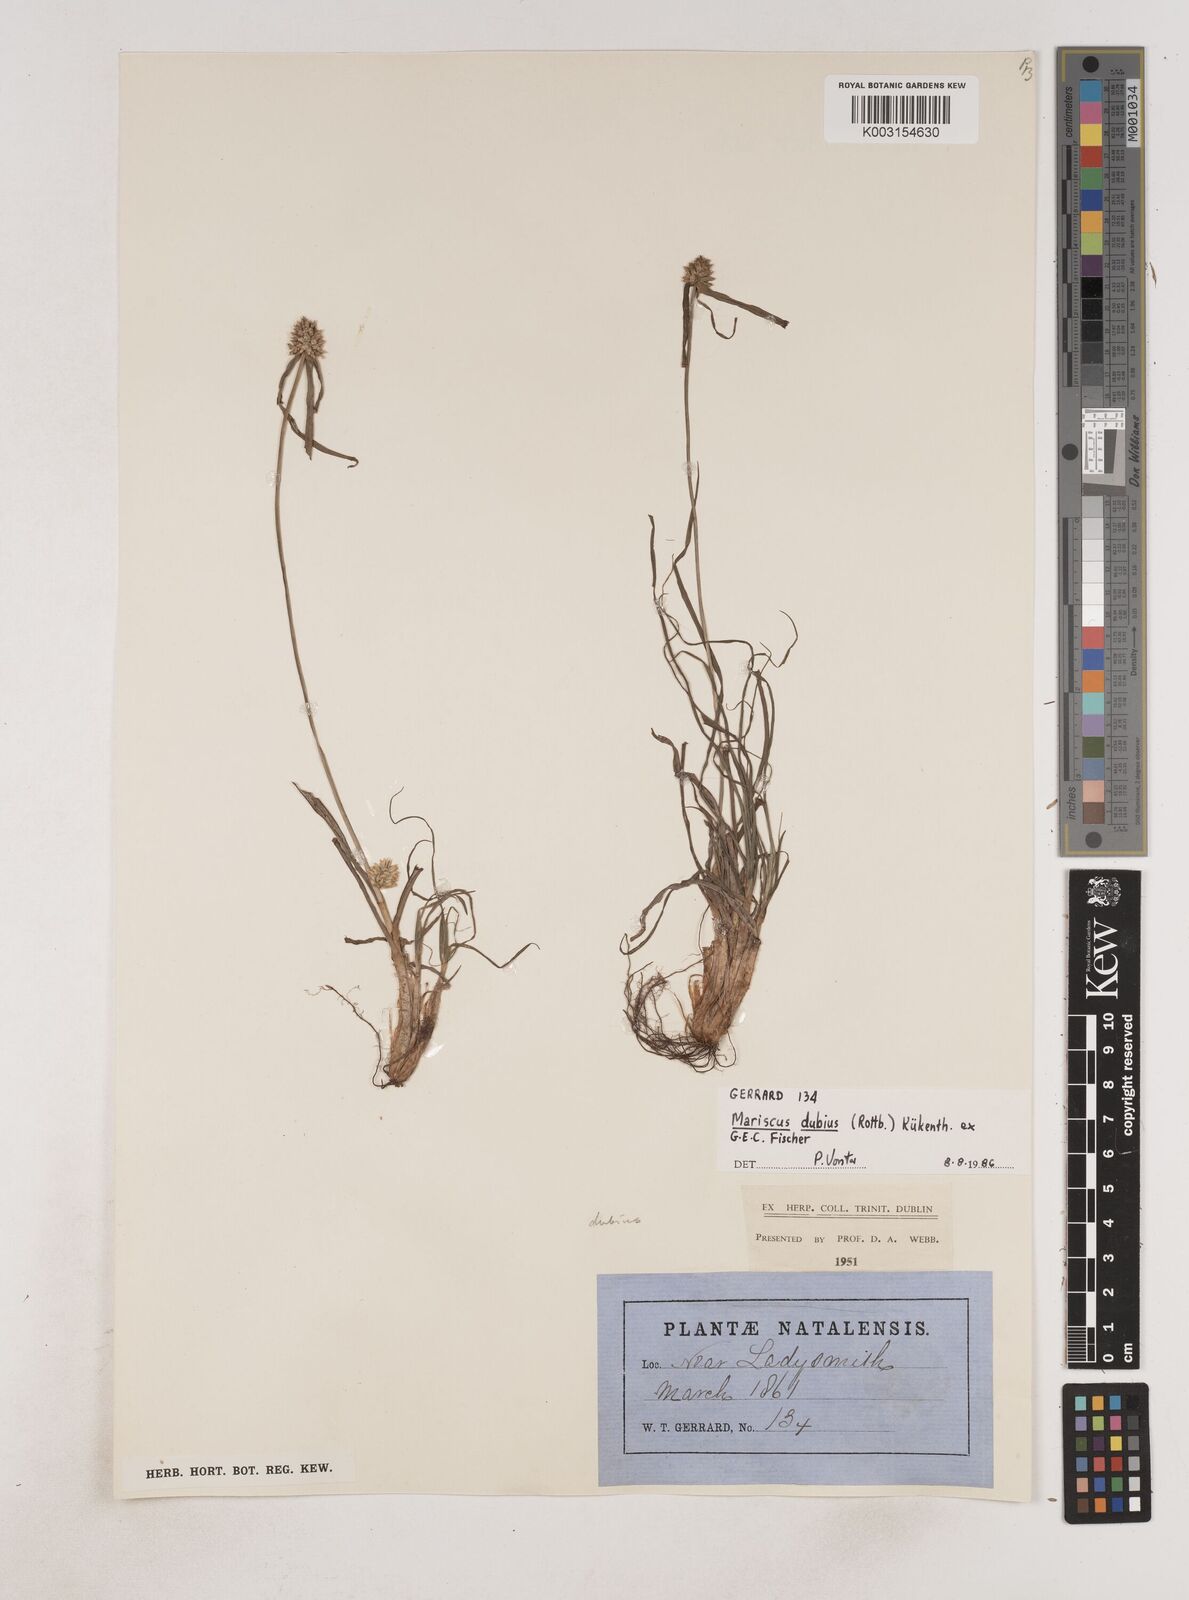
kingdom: Plantae
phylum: Tracheophyta
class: Liliopsida
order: Poales
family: Cyperaceae
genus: Cyperus
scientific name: Cyperus dubius
